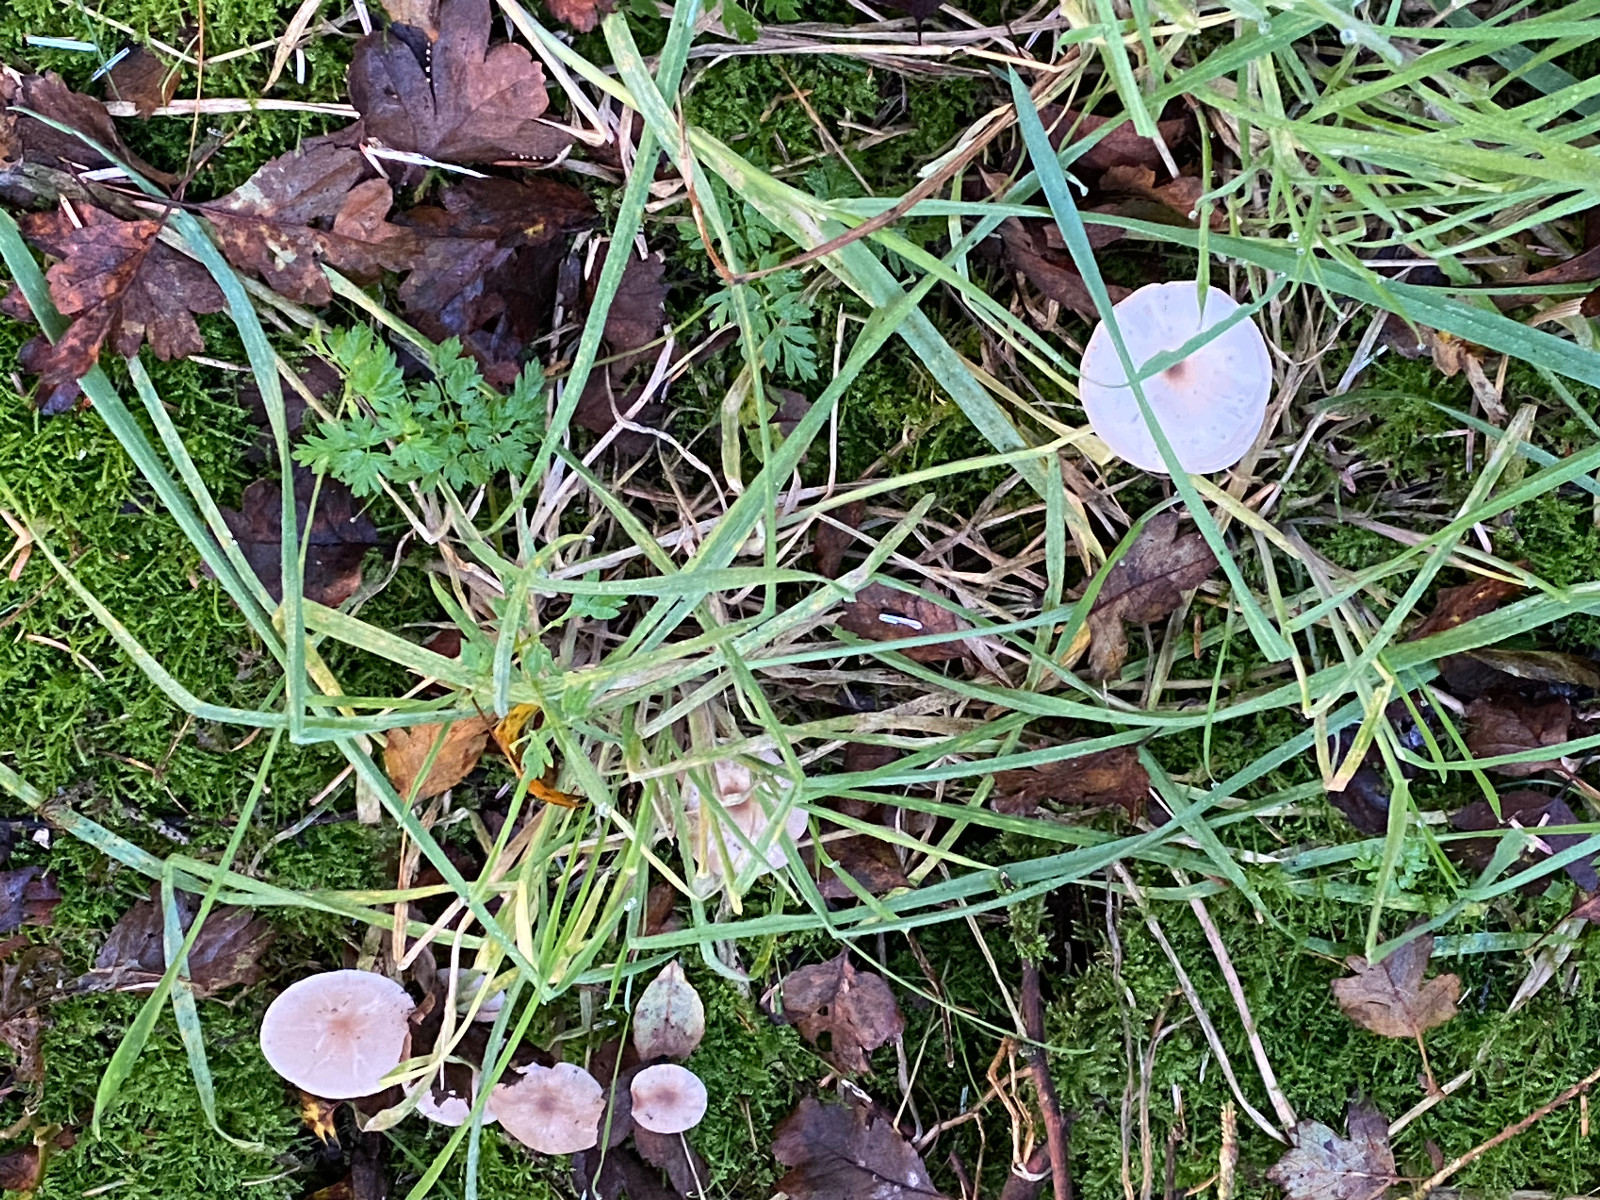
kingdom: Fungi
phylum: Basidiomycota
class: Agaricomycetes
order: Agaricales
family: Tricholomataceae
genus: Clitocybe
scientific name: Clitocybe
